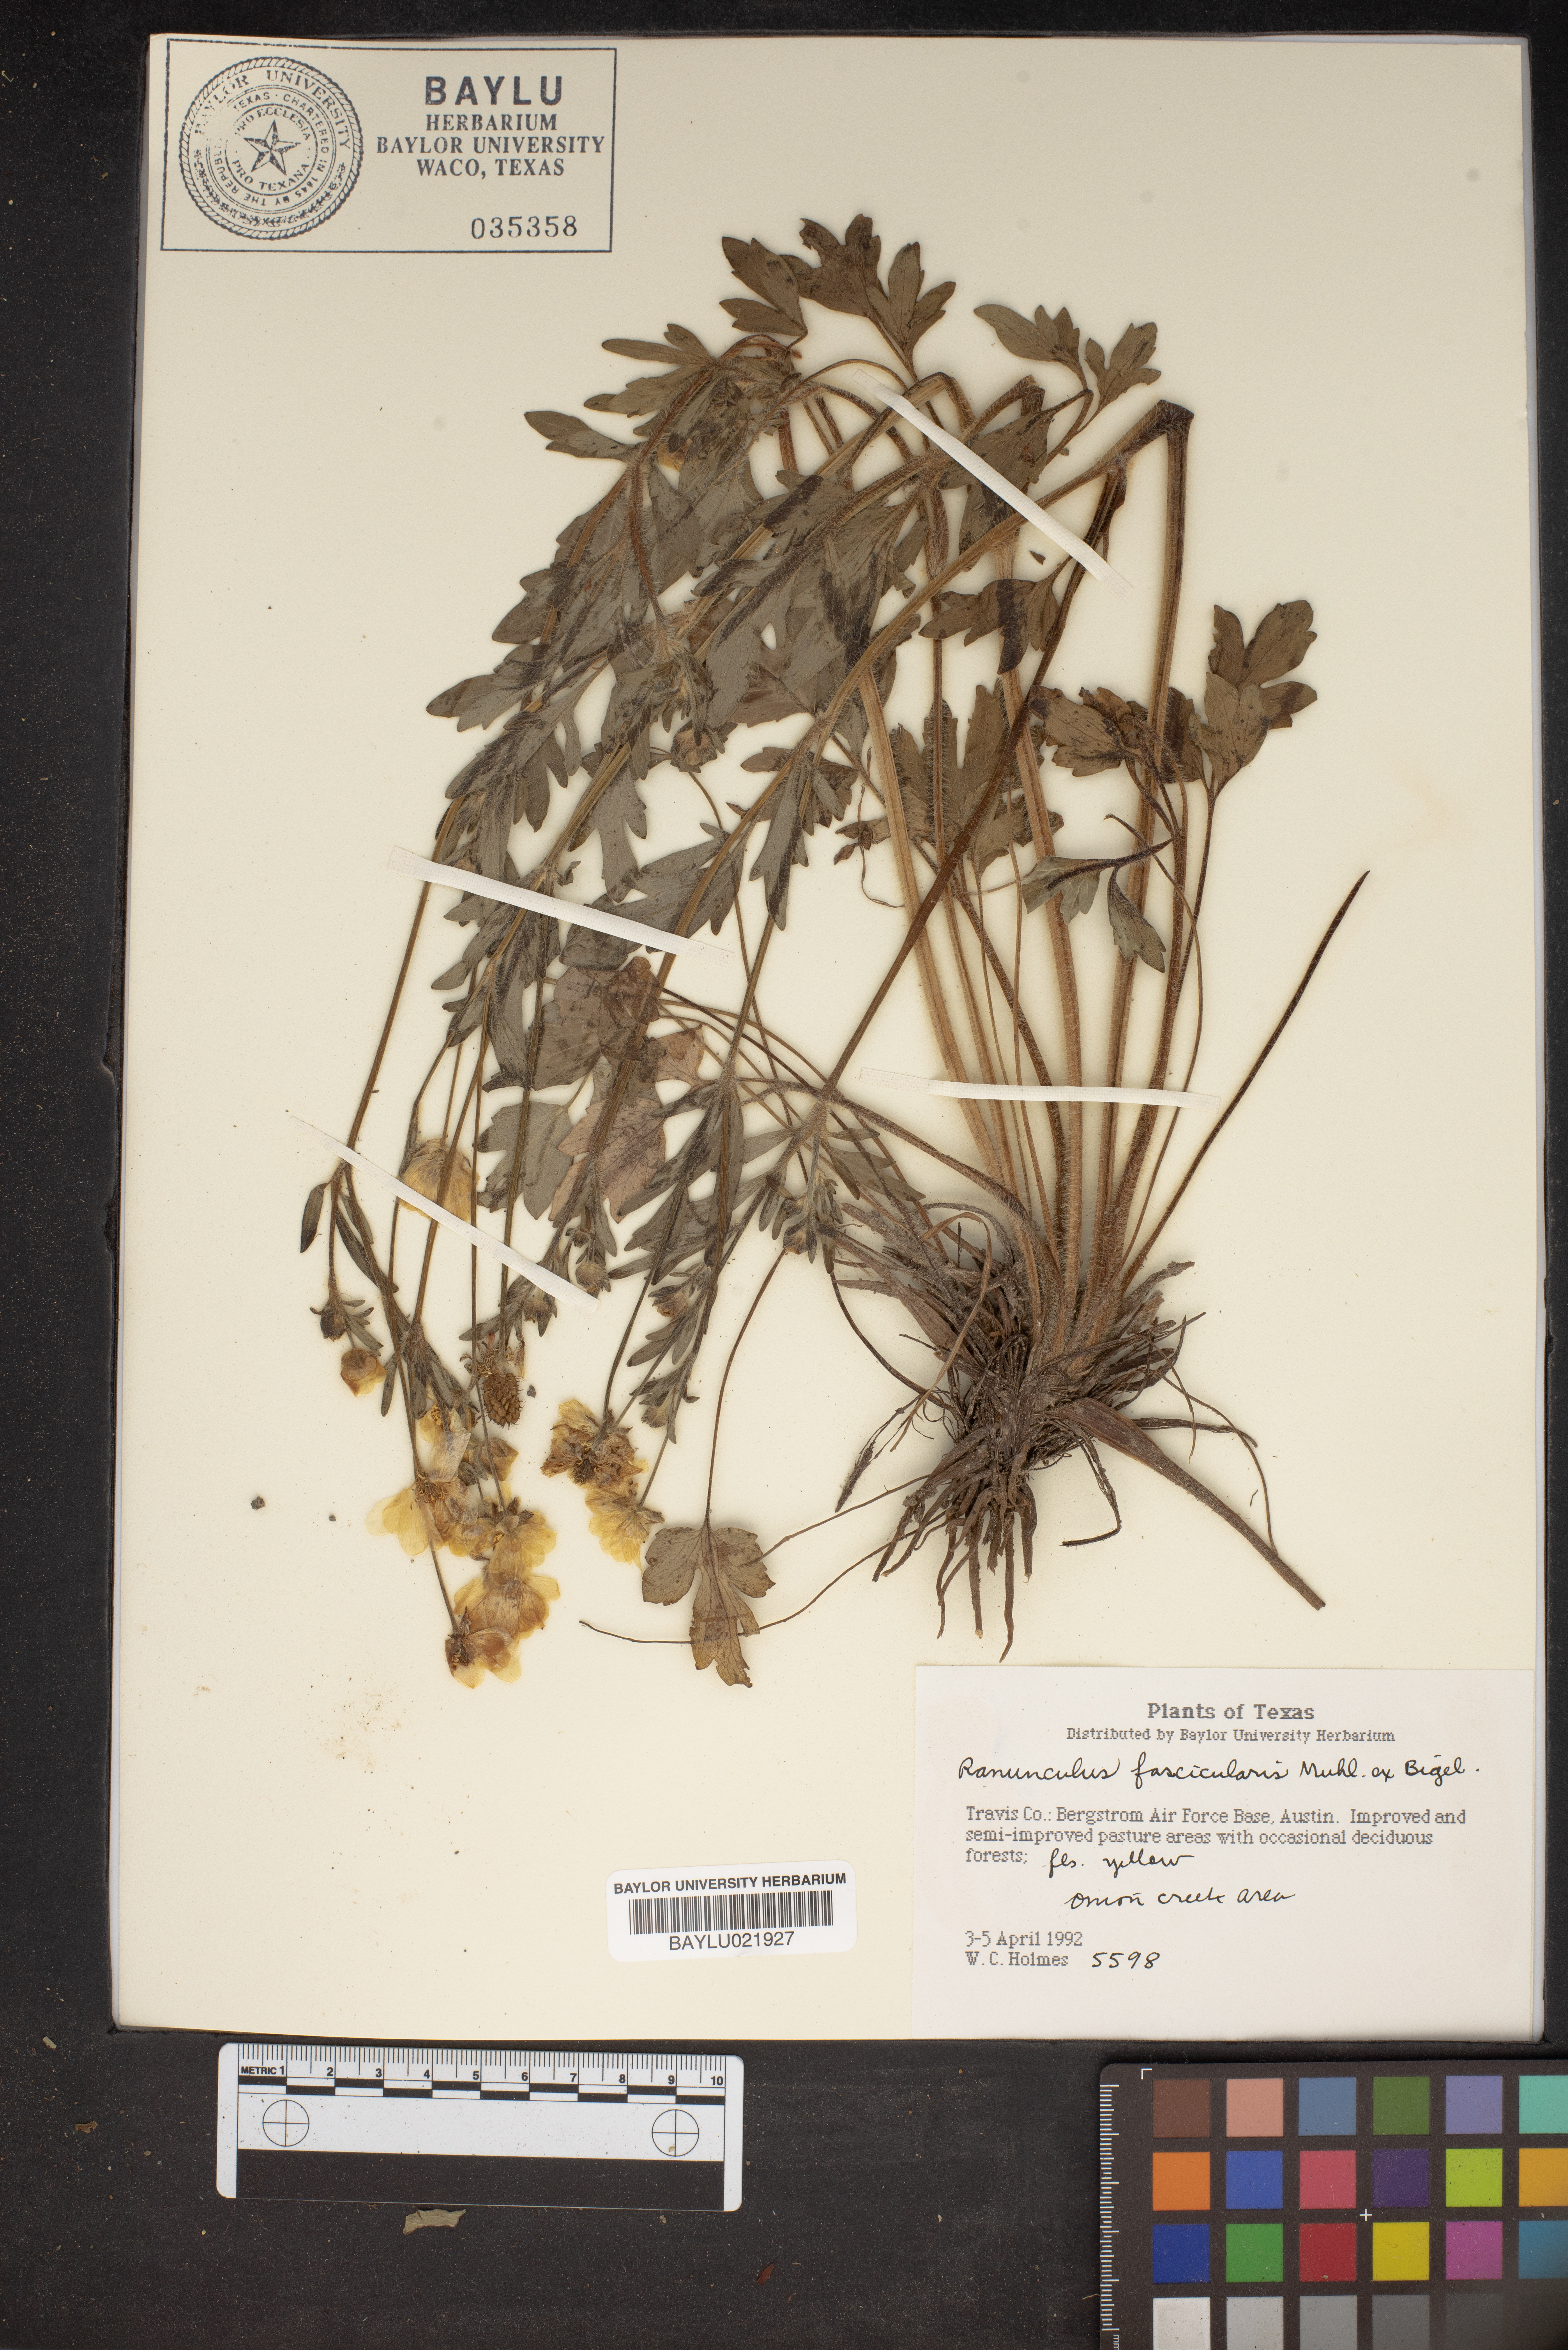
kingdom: Plantae
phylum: Tracheophyta
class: Magnoliopsida
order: Ranunculales
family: Ranunculaceae
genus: Ranunculus
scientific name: Ranunculus fascicularis
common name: Early buttercup
